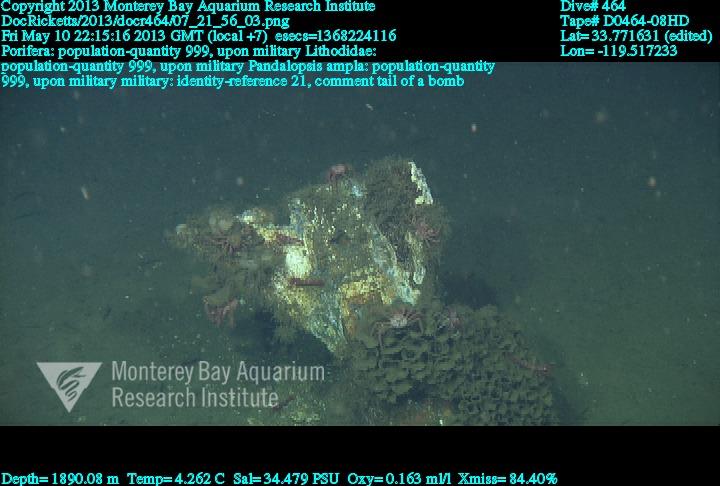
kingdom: Animalia
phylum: Porifera
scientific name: Porifera
